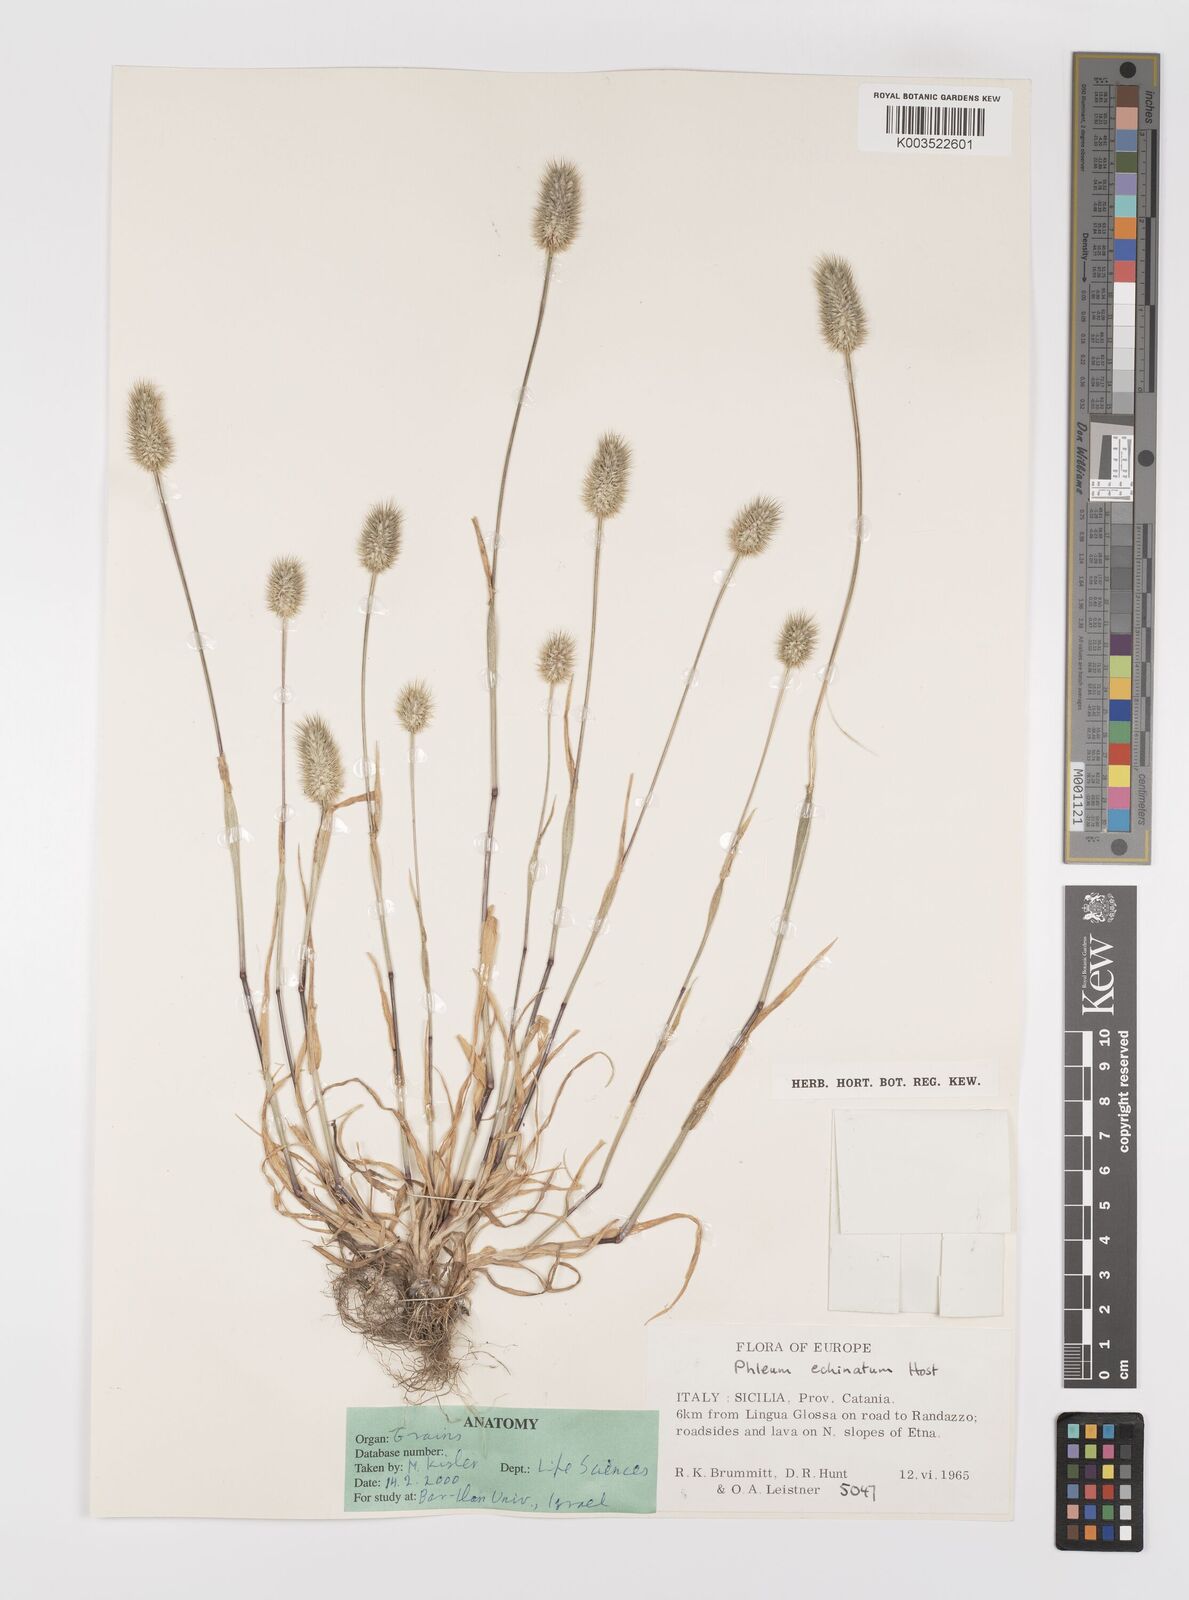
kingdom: Plantae
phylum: Tracheophyta
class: Liliopsida
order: Poales
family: Poaceae
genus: Phleum
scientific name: Phleum echinatum
